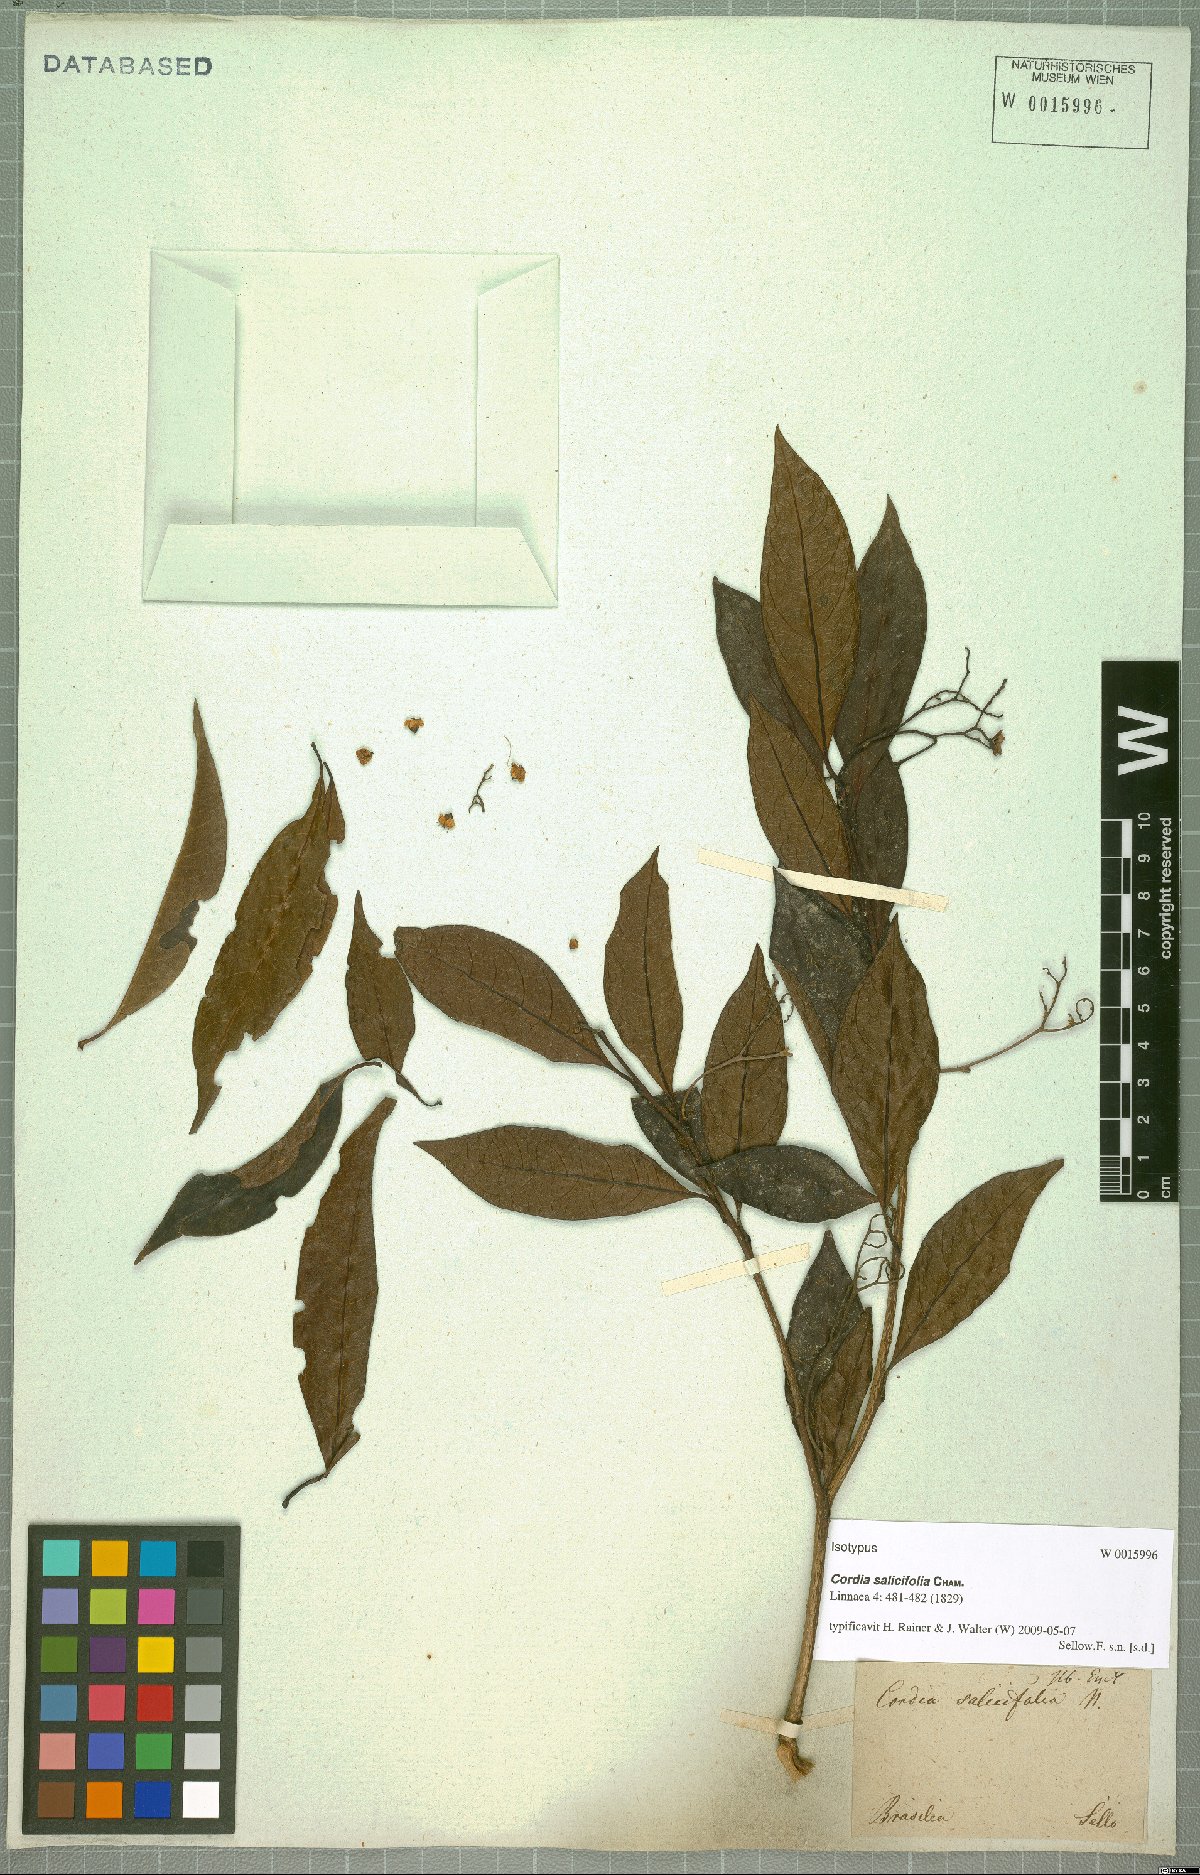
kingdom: Plantae
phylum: Tracheophyta
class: Magnoliopsida
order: Boraginales
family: Cordiaceae
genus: Cordia
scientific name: Cordia ecalyculata
